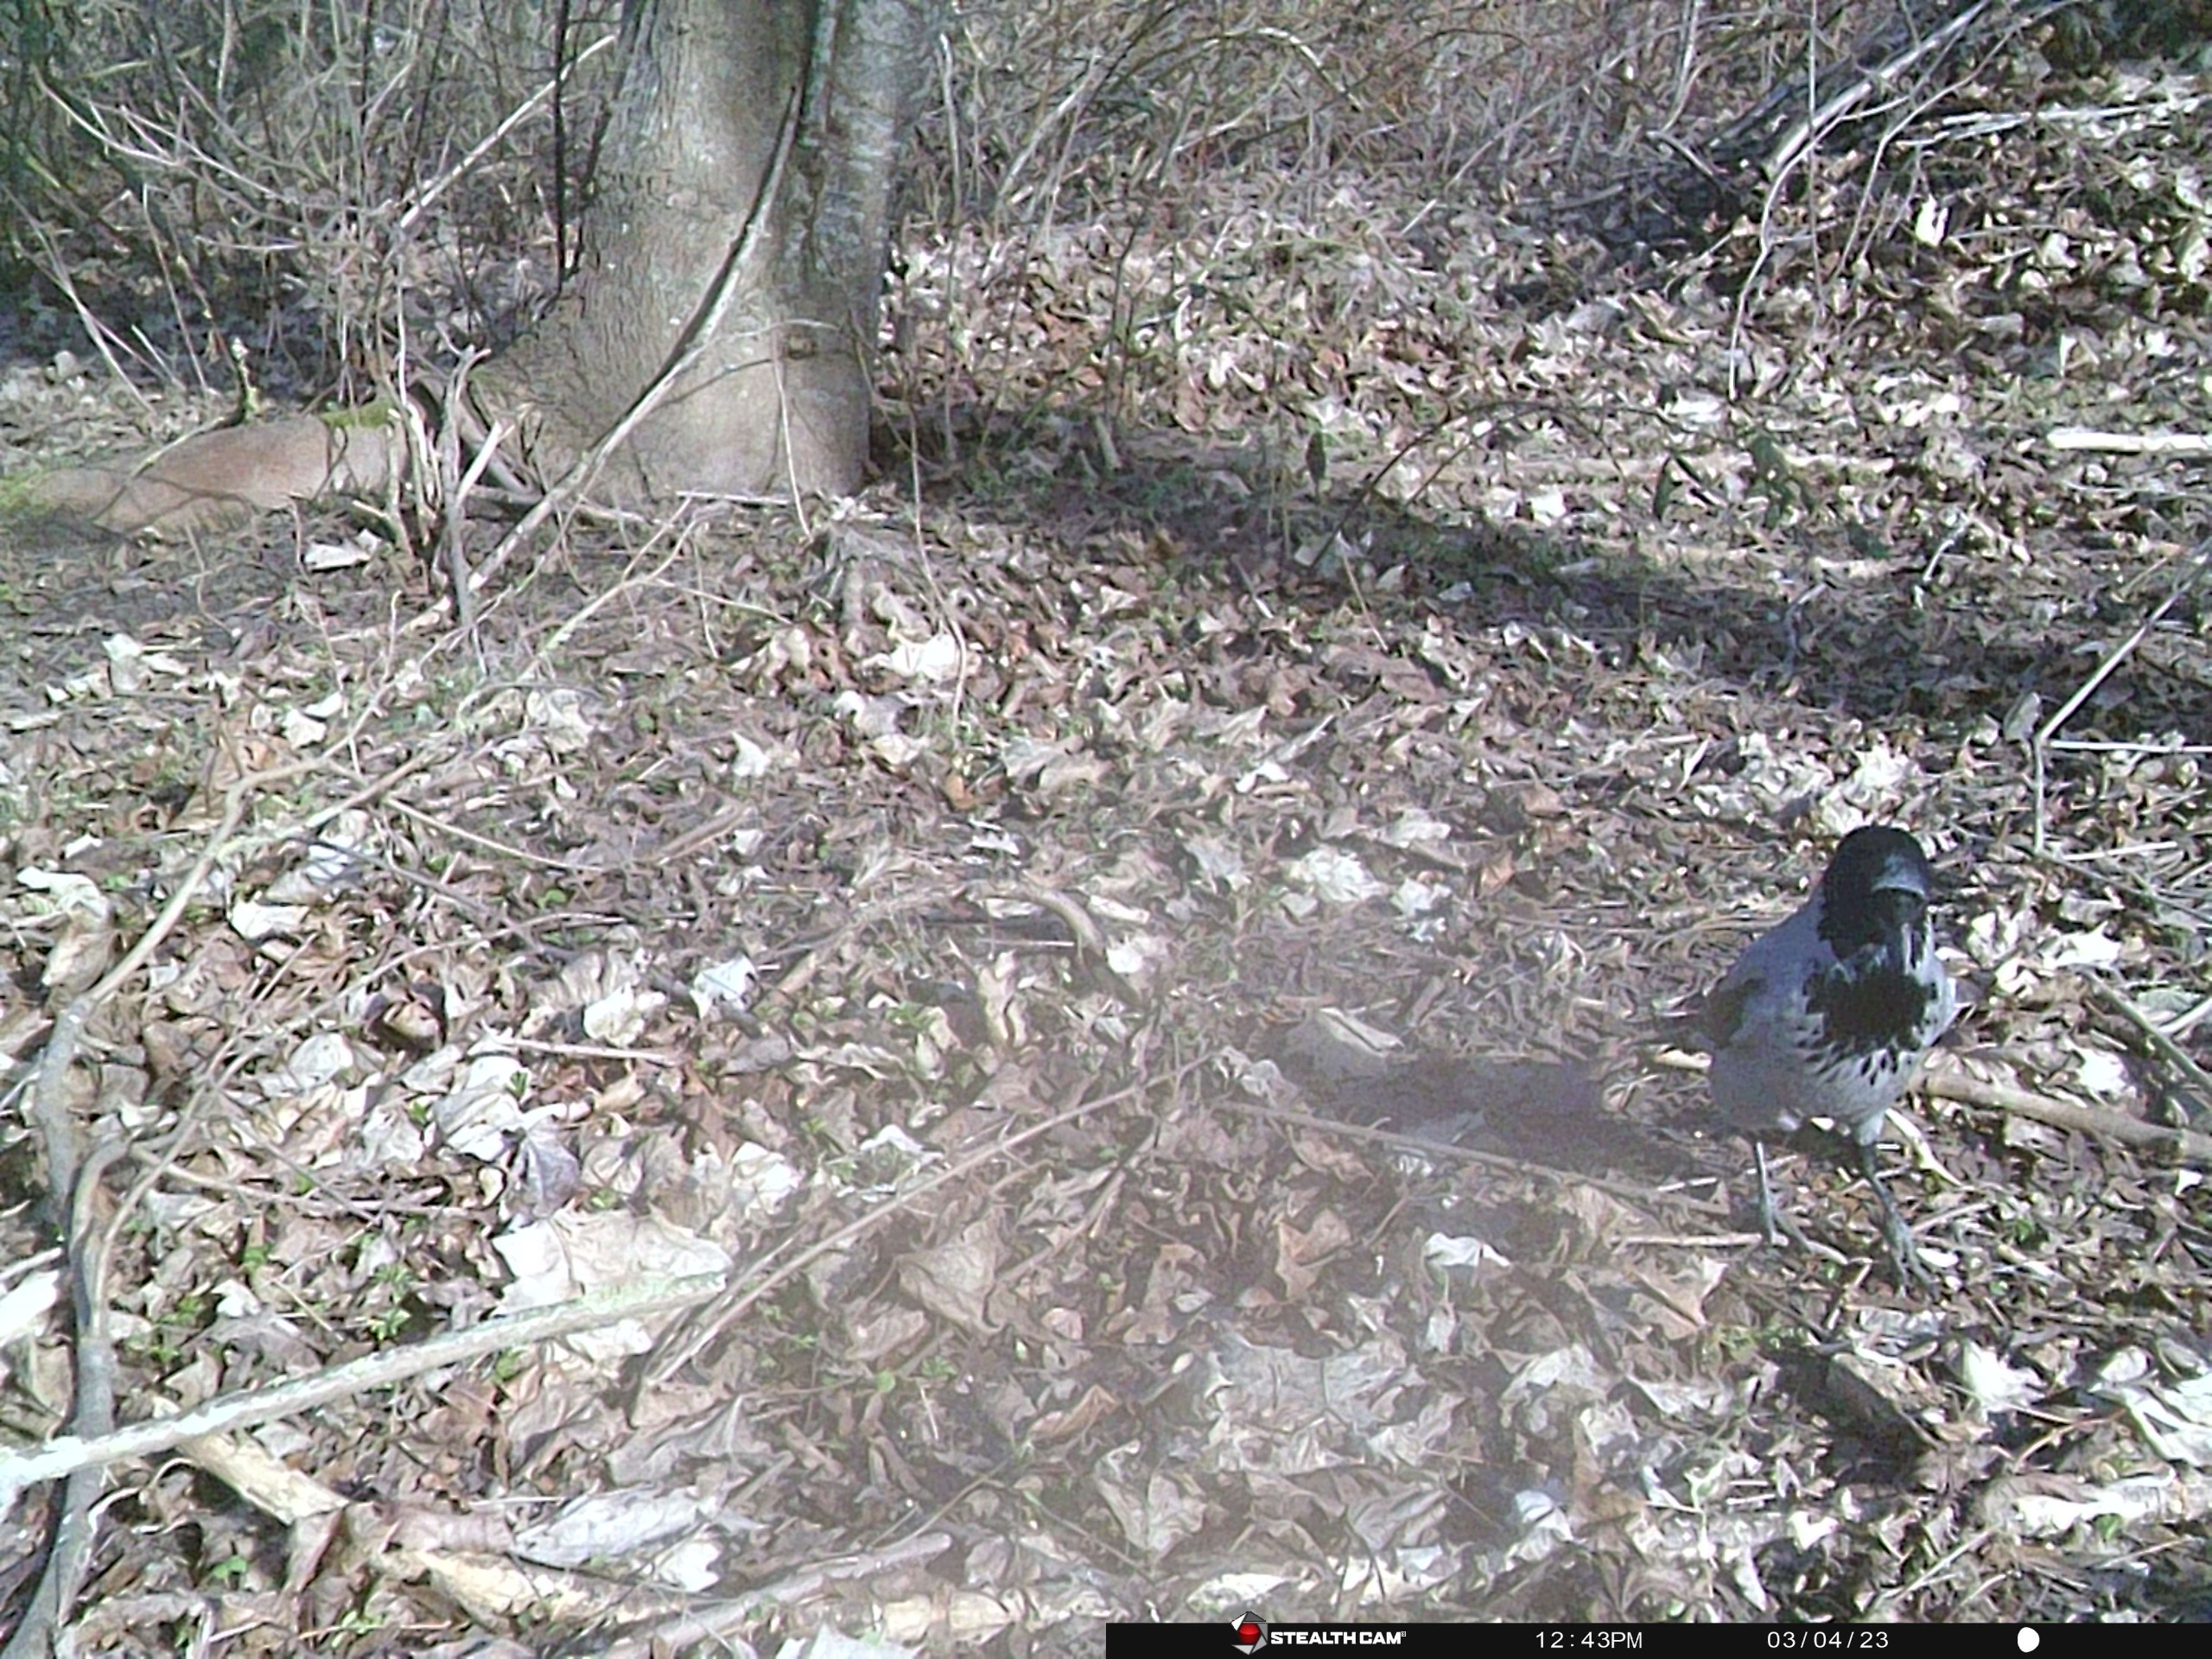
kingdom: Animalia
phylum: Chordata
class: Aves
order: Passeriformes
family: Corvidae
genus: Corvus
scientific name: Corvus cornix
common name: Gråkrage
